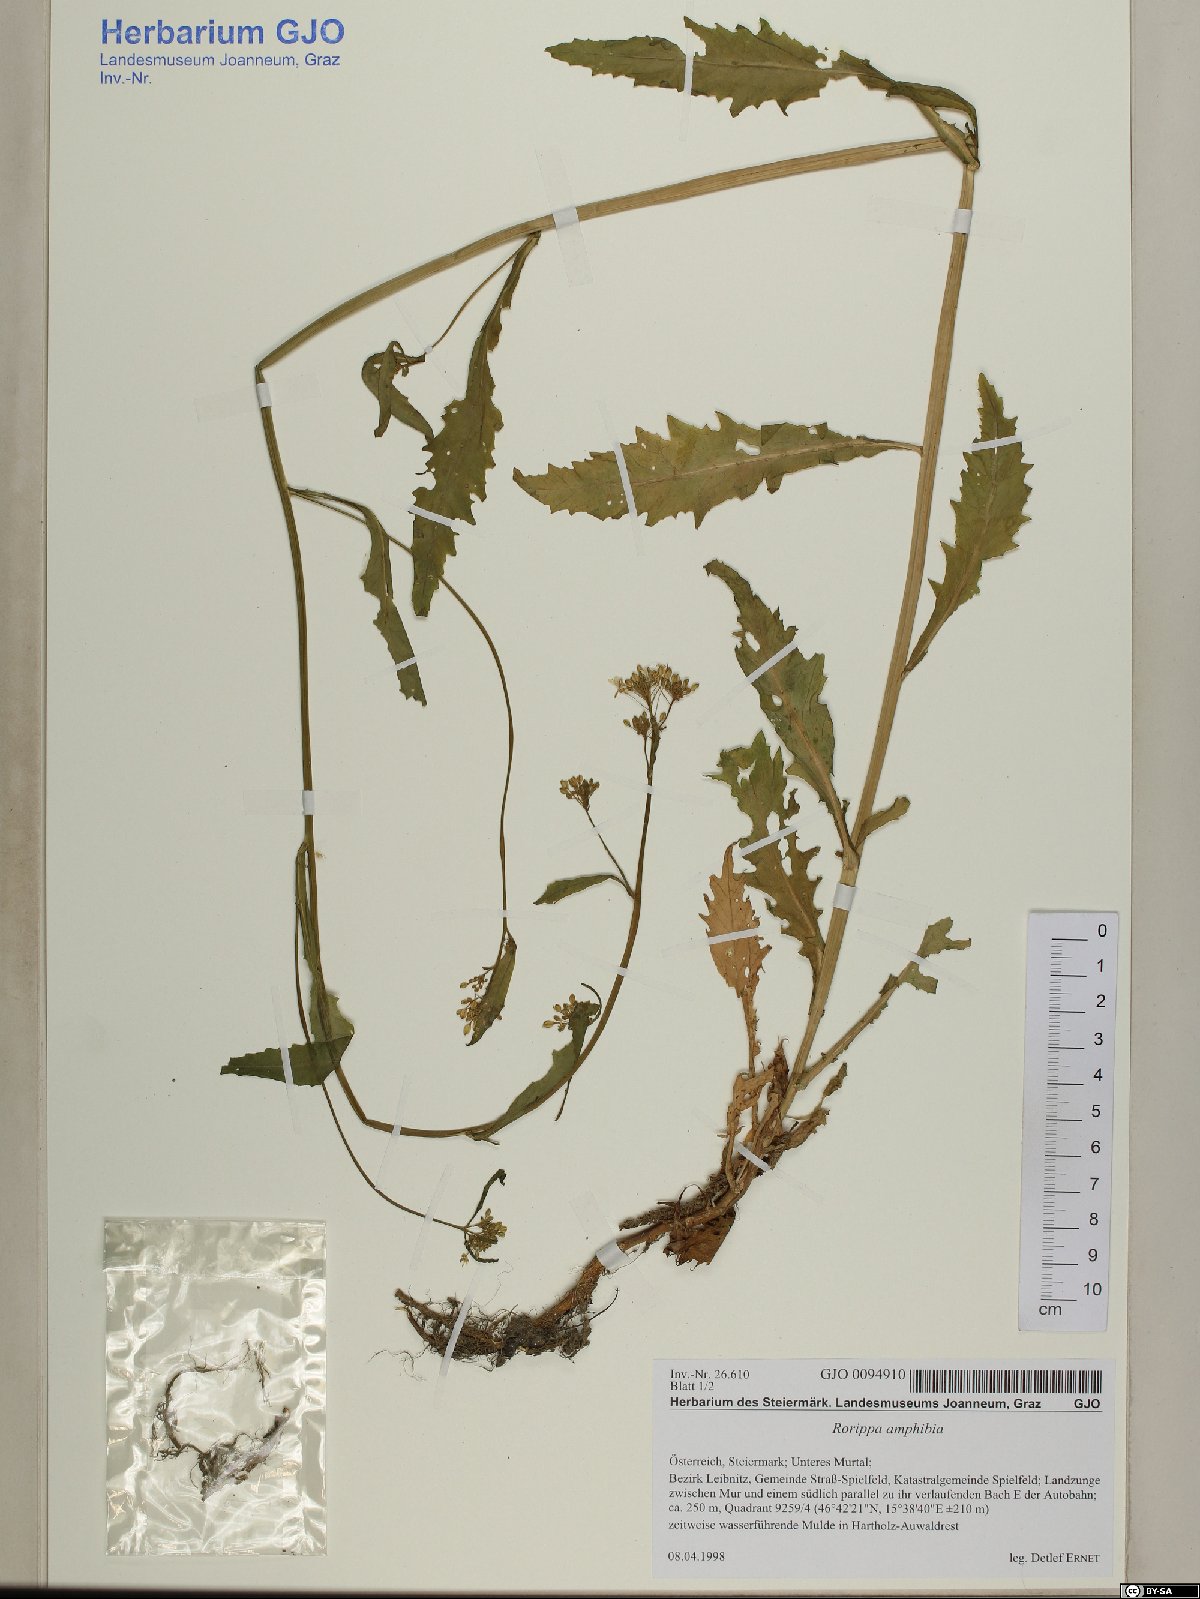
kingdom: Plantae
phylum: Tracheophyta
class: Magnoliopsida
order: Brassicales
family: Brassicaceae
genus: Rorippa
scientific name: Rorippa amphibia
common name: Great yellow-cress
